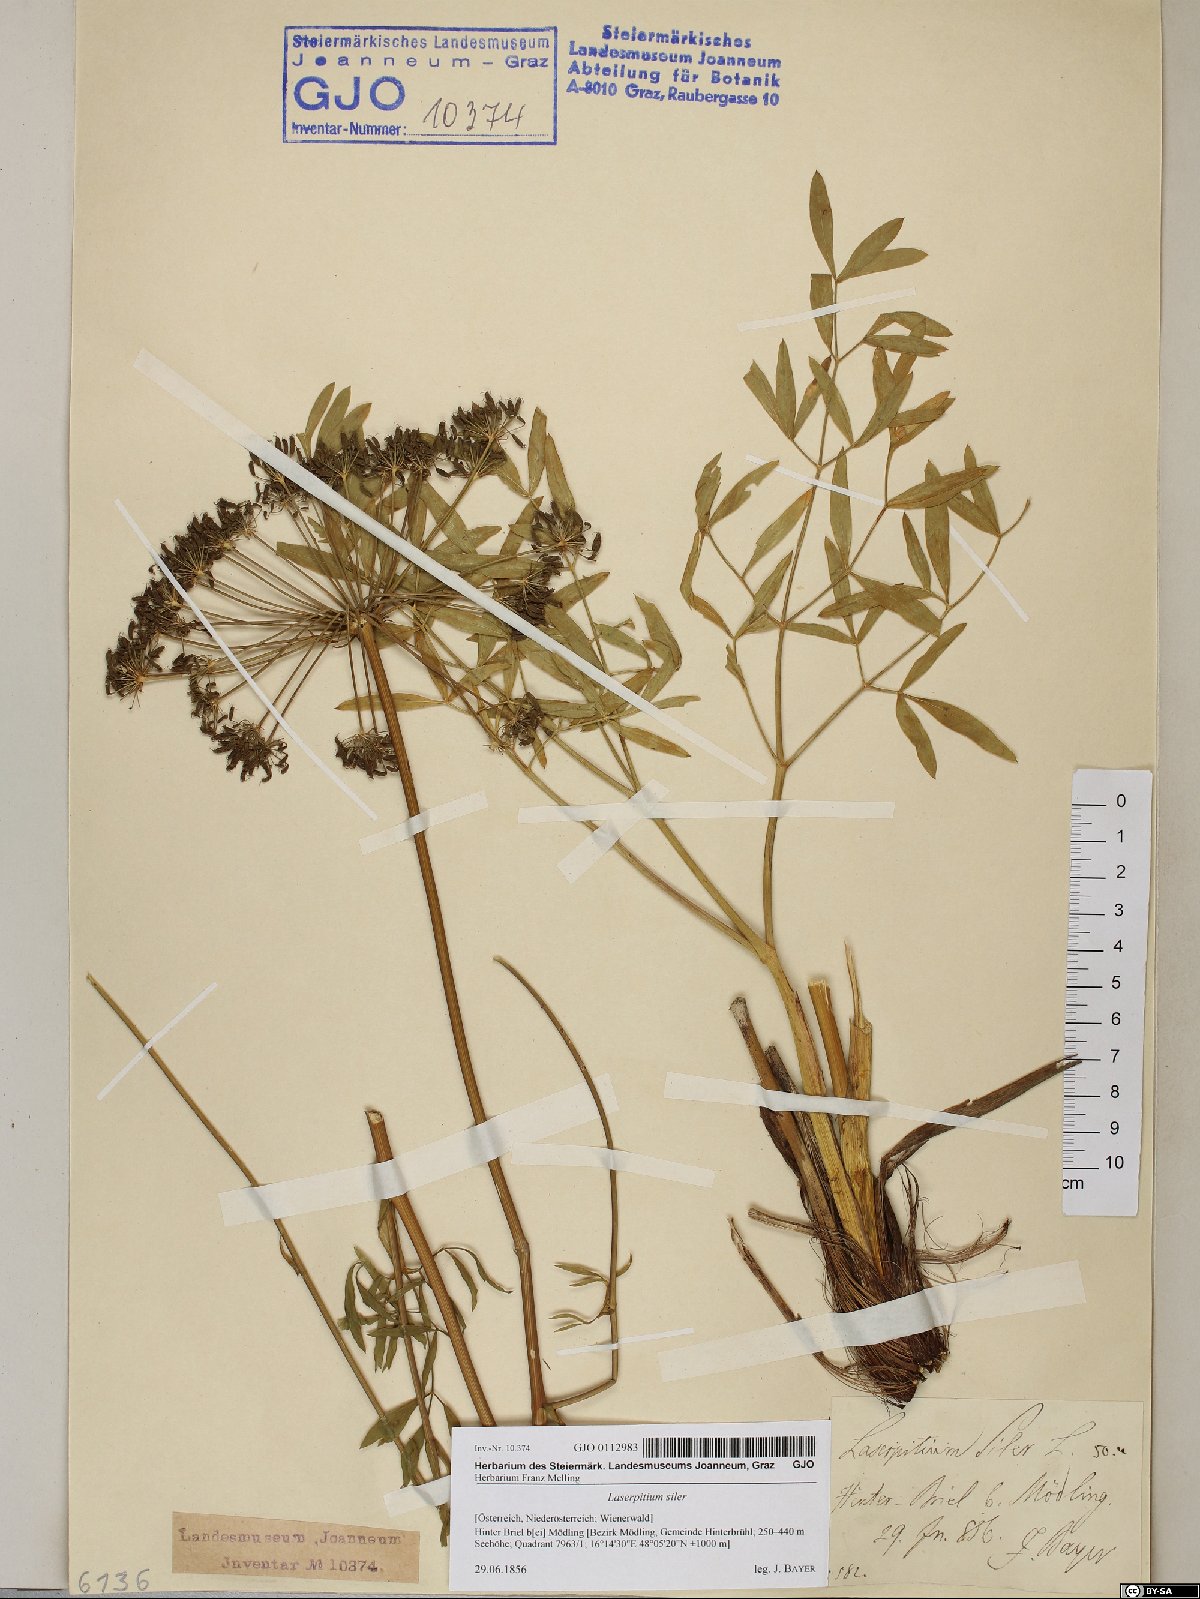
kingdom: Plantae
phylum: Tracheophyta
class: Magnoliopsida
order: Apiales
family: Apiaceae
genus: Siler
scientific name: Siler montanum
